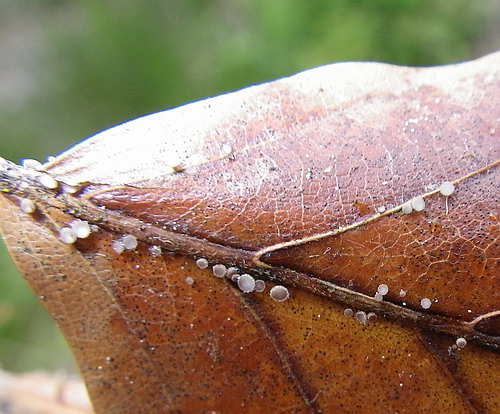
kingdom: Fungi
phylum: Ascomycota
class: Leotiomycetes
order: Helotiales
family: Lachnaceae
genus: Brunnipila
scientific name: Brunnipila fuscescens
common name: bøge-frynseskive
